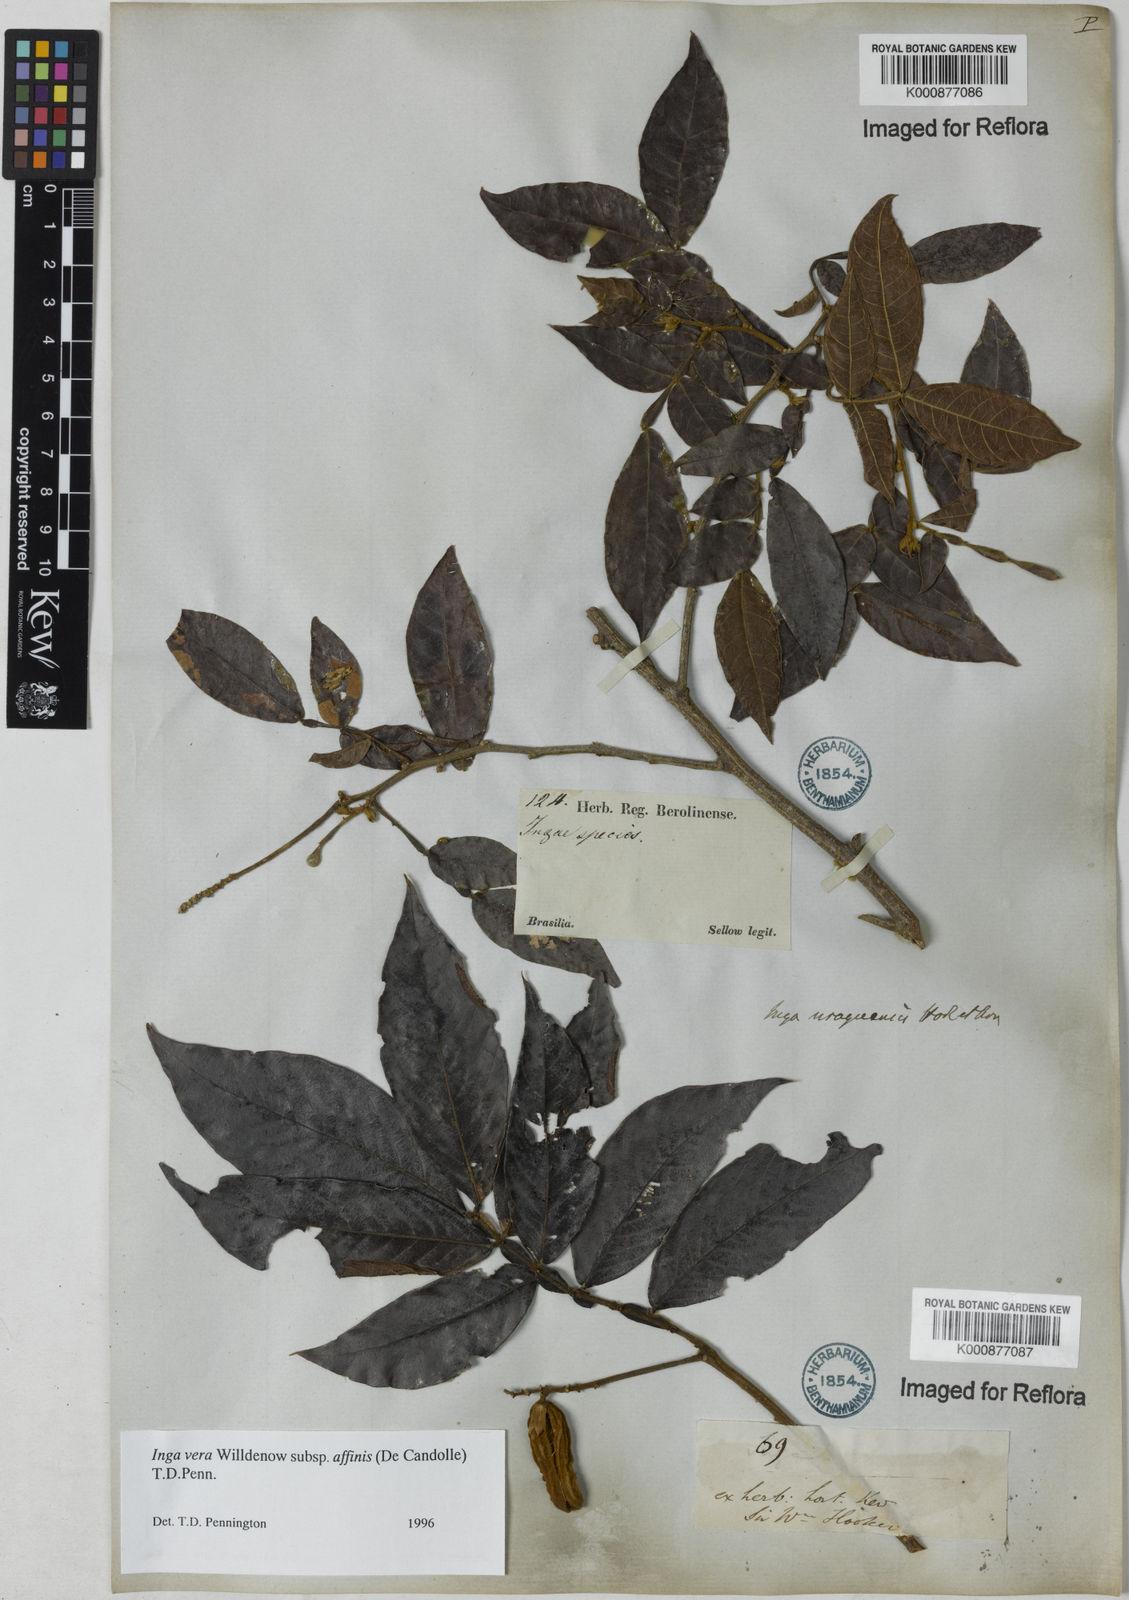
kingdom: Plantae
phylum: Tracheophyta
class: Magnoliopsida
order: Fabales
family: Fabaceae
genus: Inga
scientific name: Inga affinis
